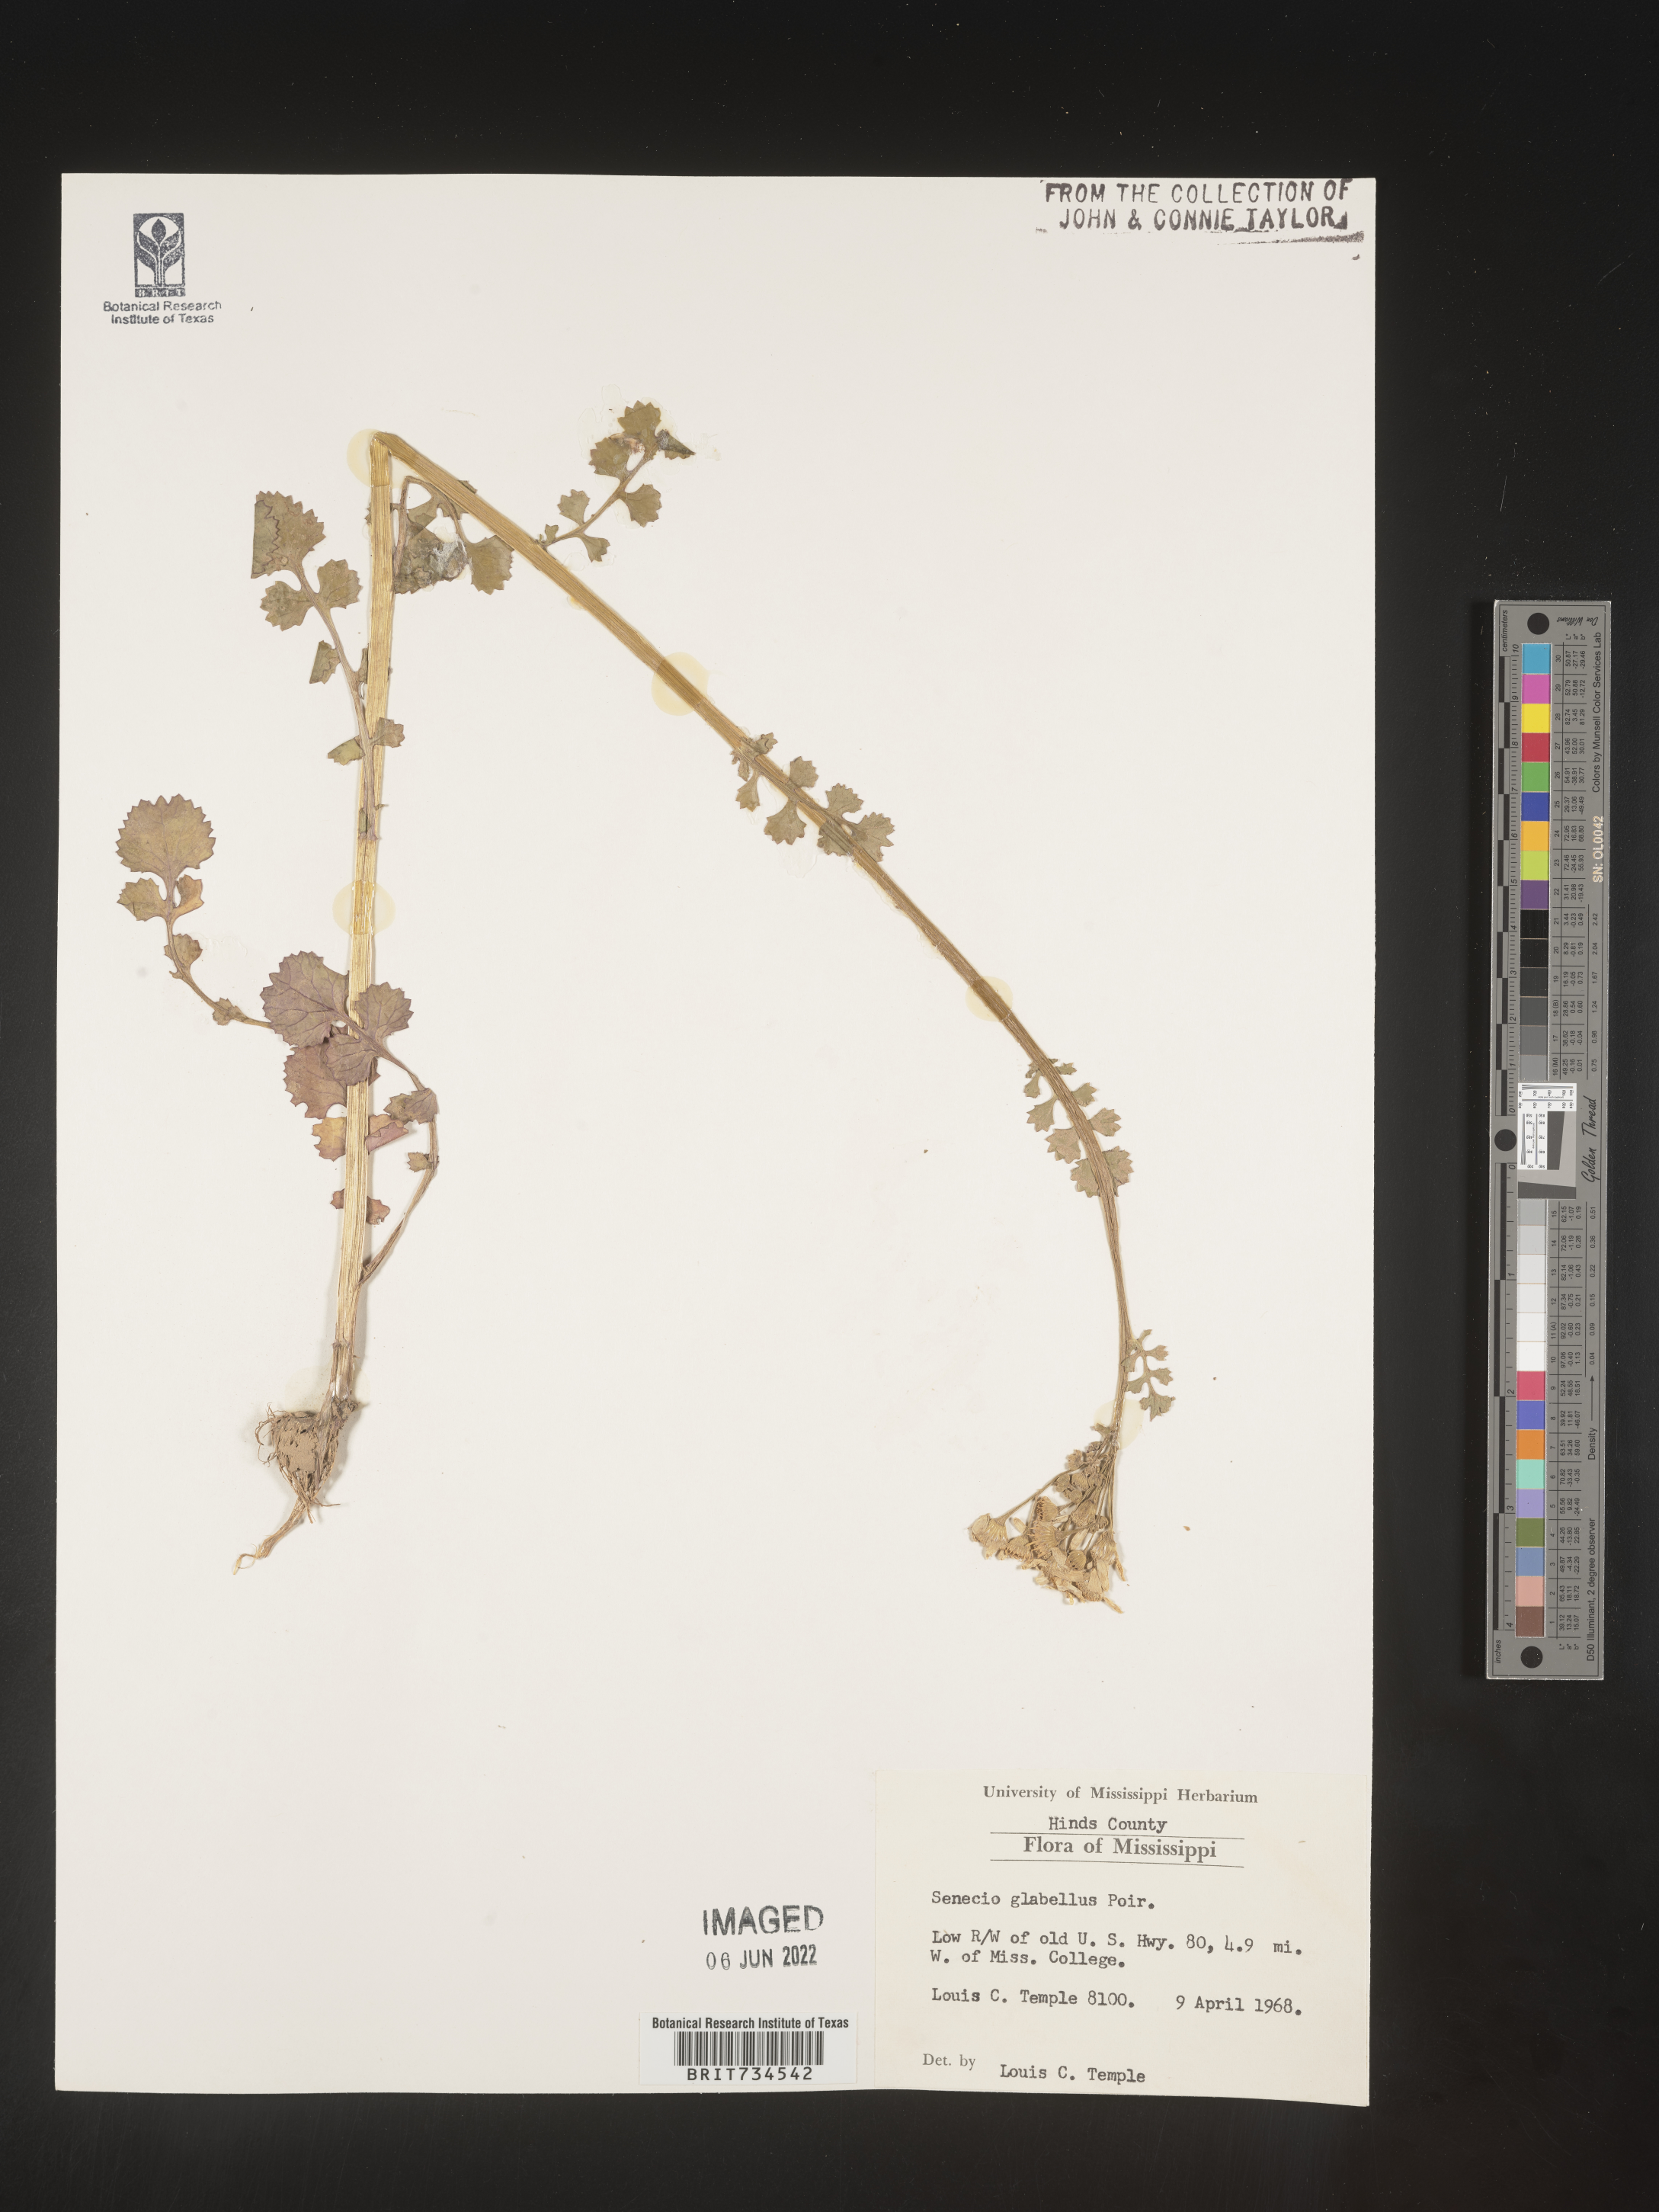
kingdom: Plantae
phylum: Tracheophyta
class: Magnoliopsida
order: Asterales
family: Asteraceae
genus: Packera
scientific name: Packera glabella
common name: Butterweed
